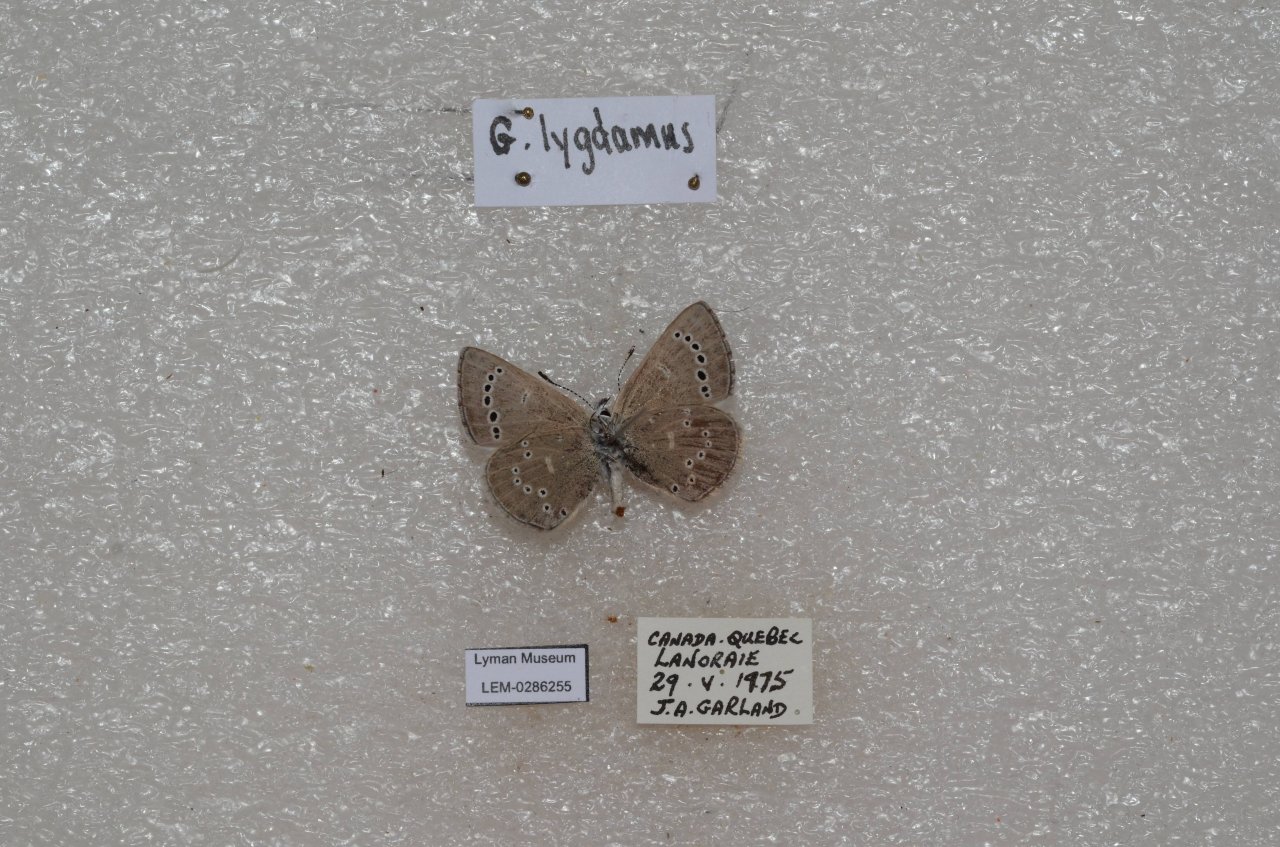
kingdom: Animalia
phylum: Arthropoda
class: Insecta
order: Lepidoptera
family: Lycaenidae
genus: Glaucopsyche
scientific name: Glaucopsyche lygdamus
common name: Silvery Blue
